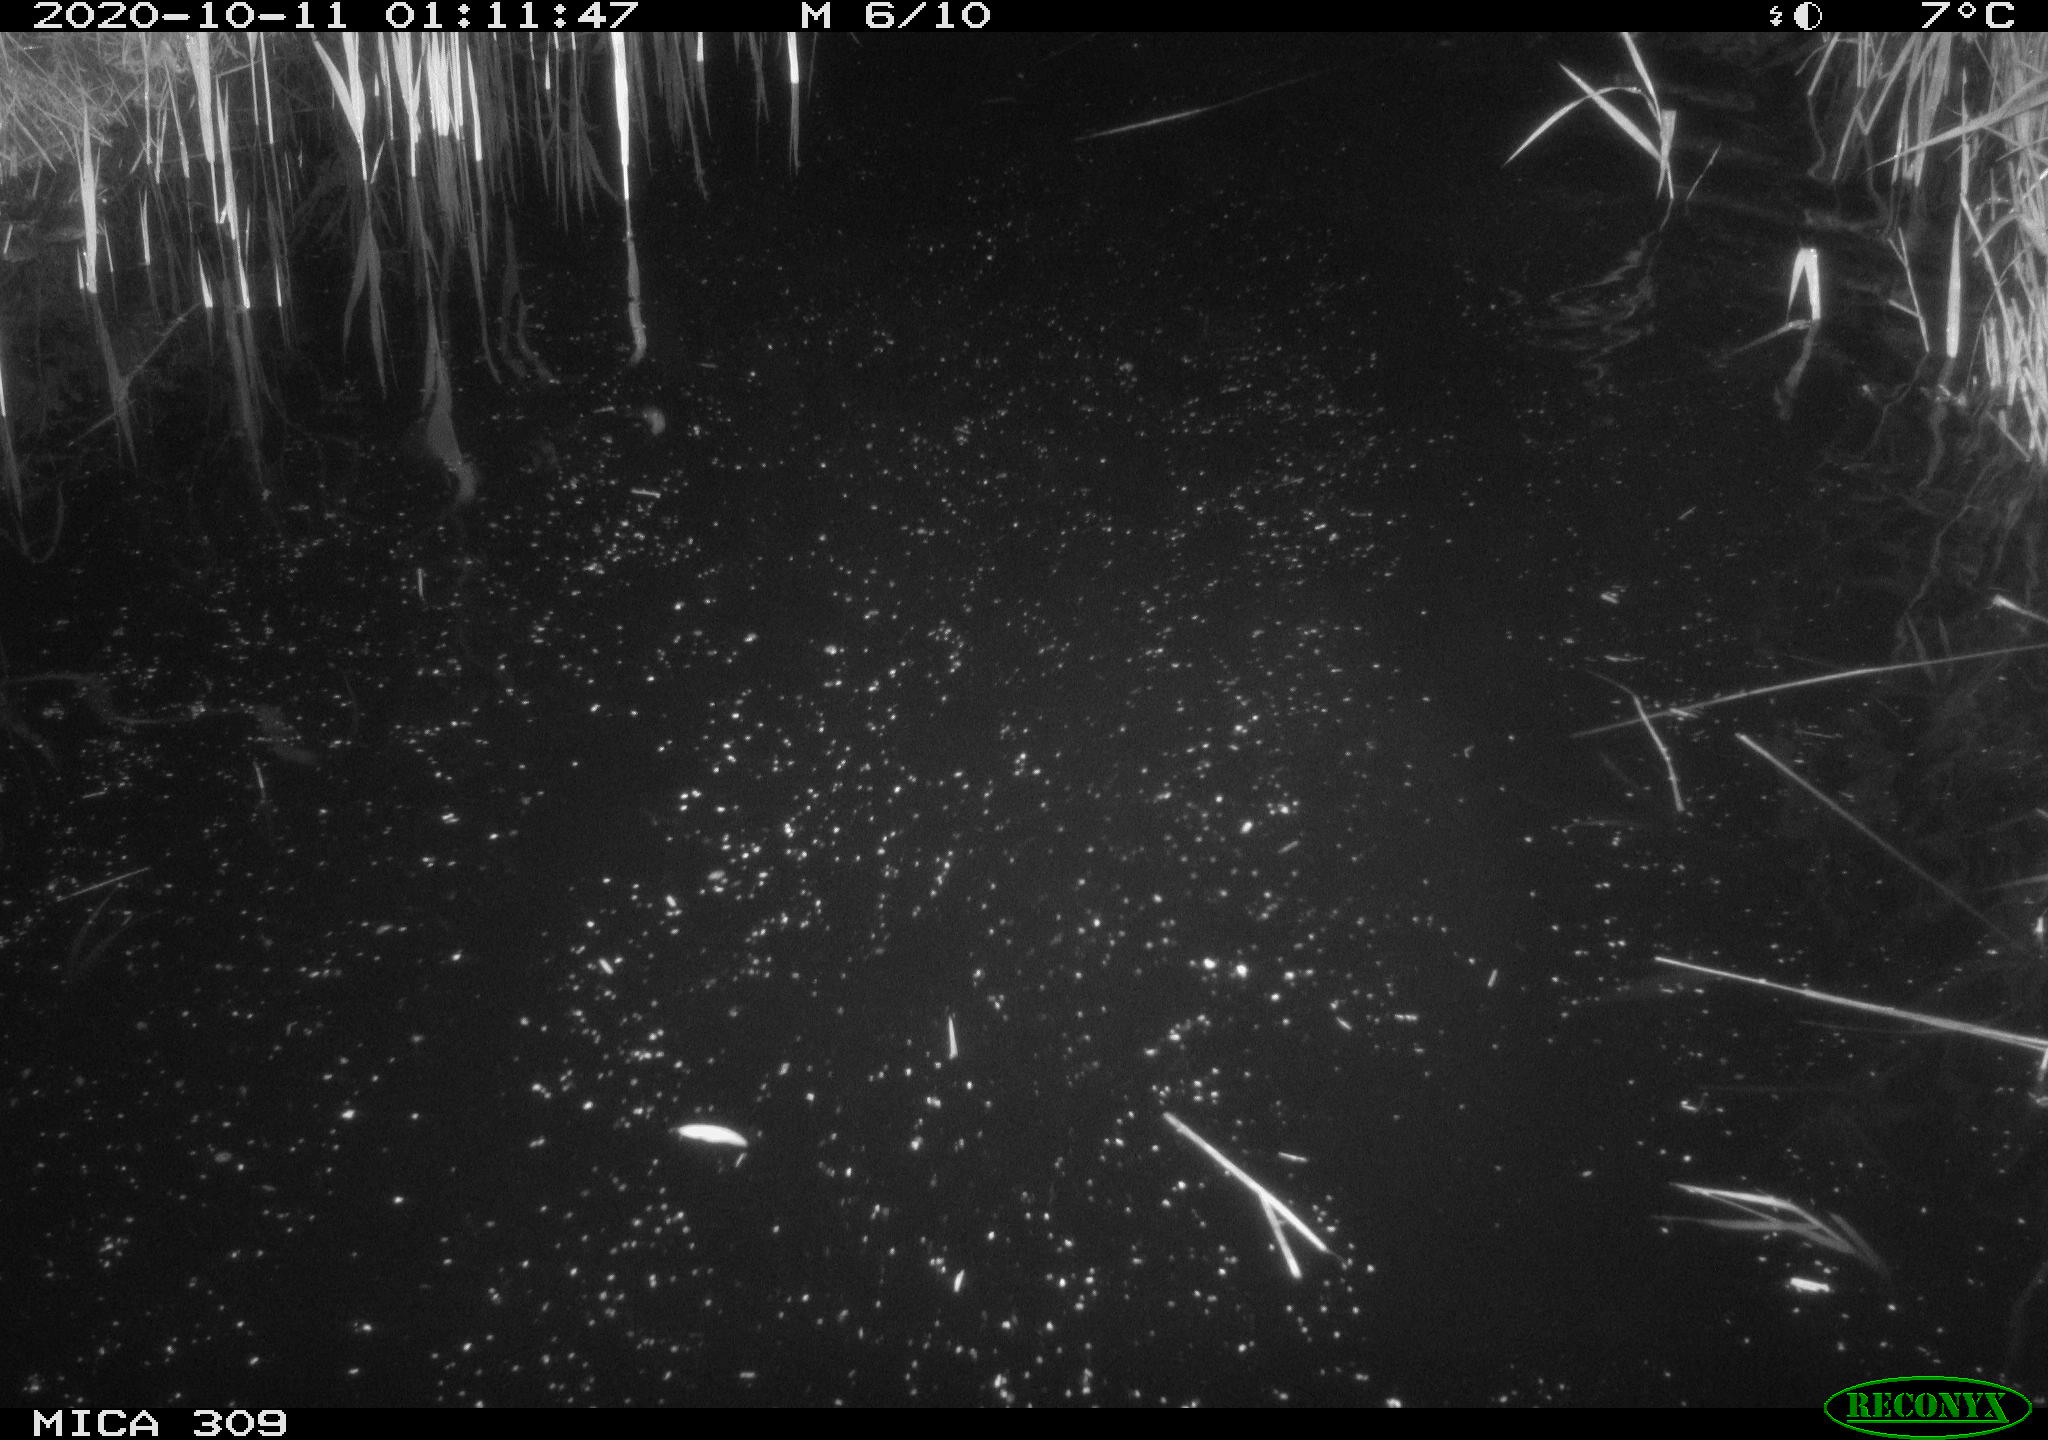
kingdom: Animalia
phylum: Chordata
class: Mammalia
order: Rodentia
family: Muridae
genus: Rattus
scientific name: Rattus norvegicus
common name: Brown rat
